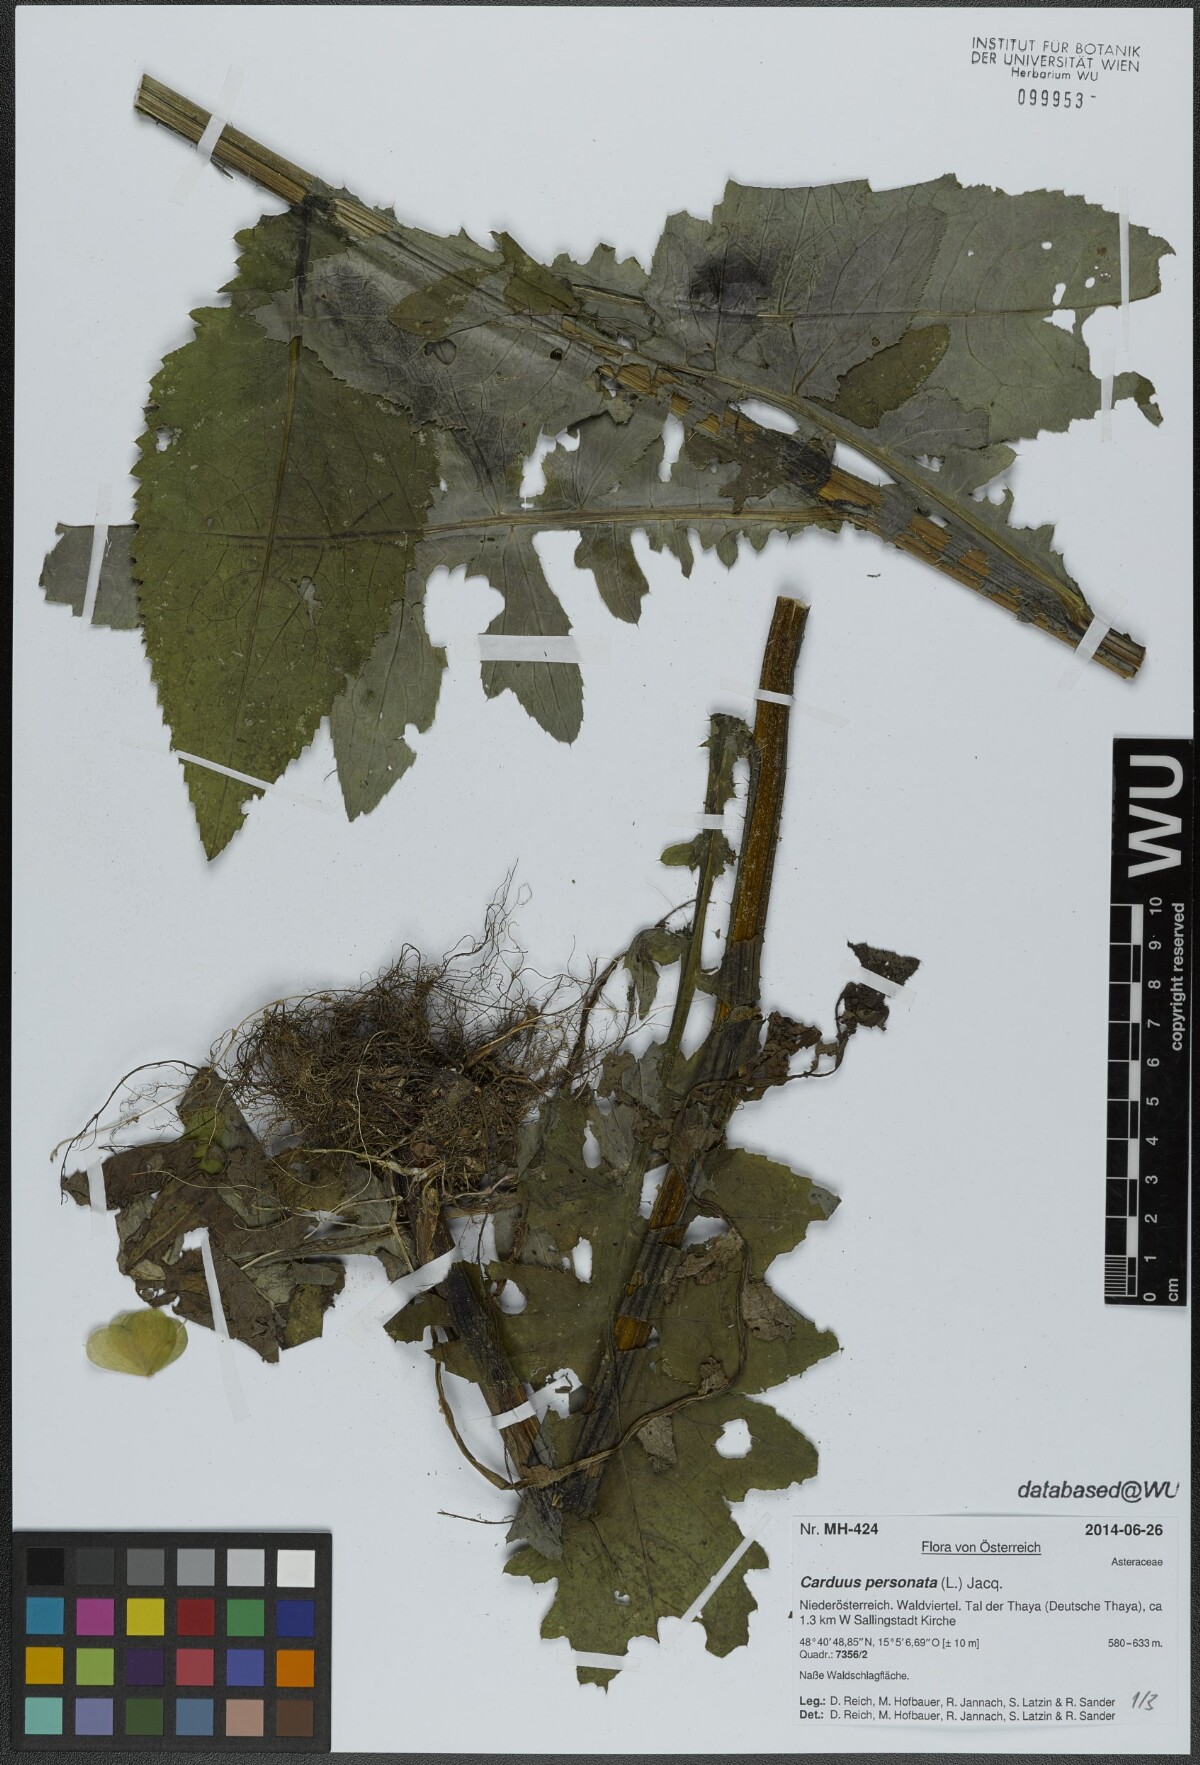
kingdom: Plantae
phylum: Tracheophyta
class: Magnoliopsida
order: Asterales
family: Asteraceae
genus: Carduus
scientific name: Carduus personata
